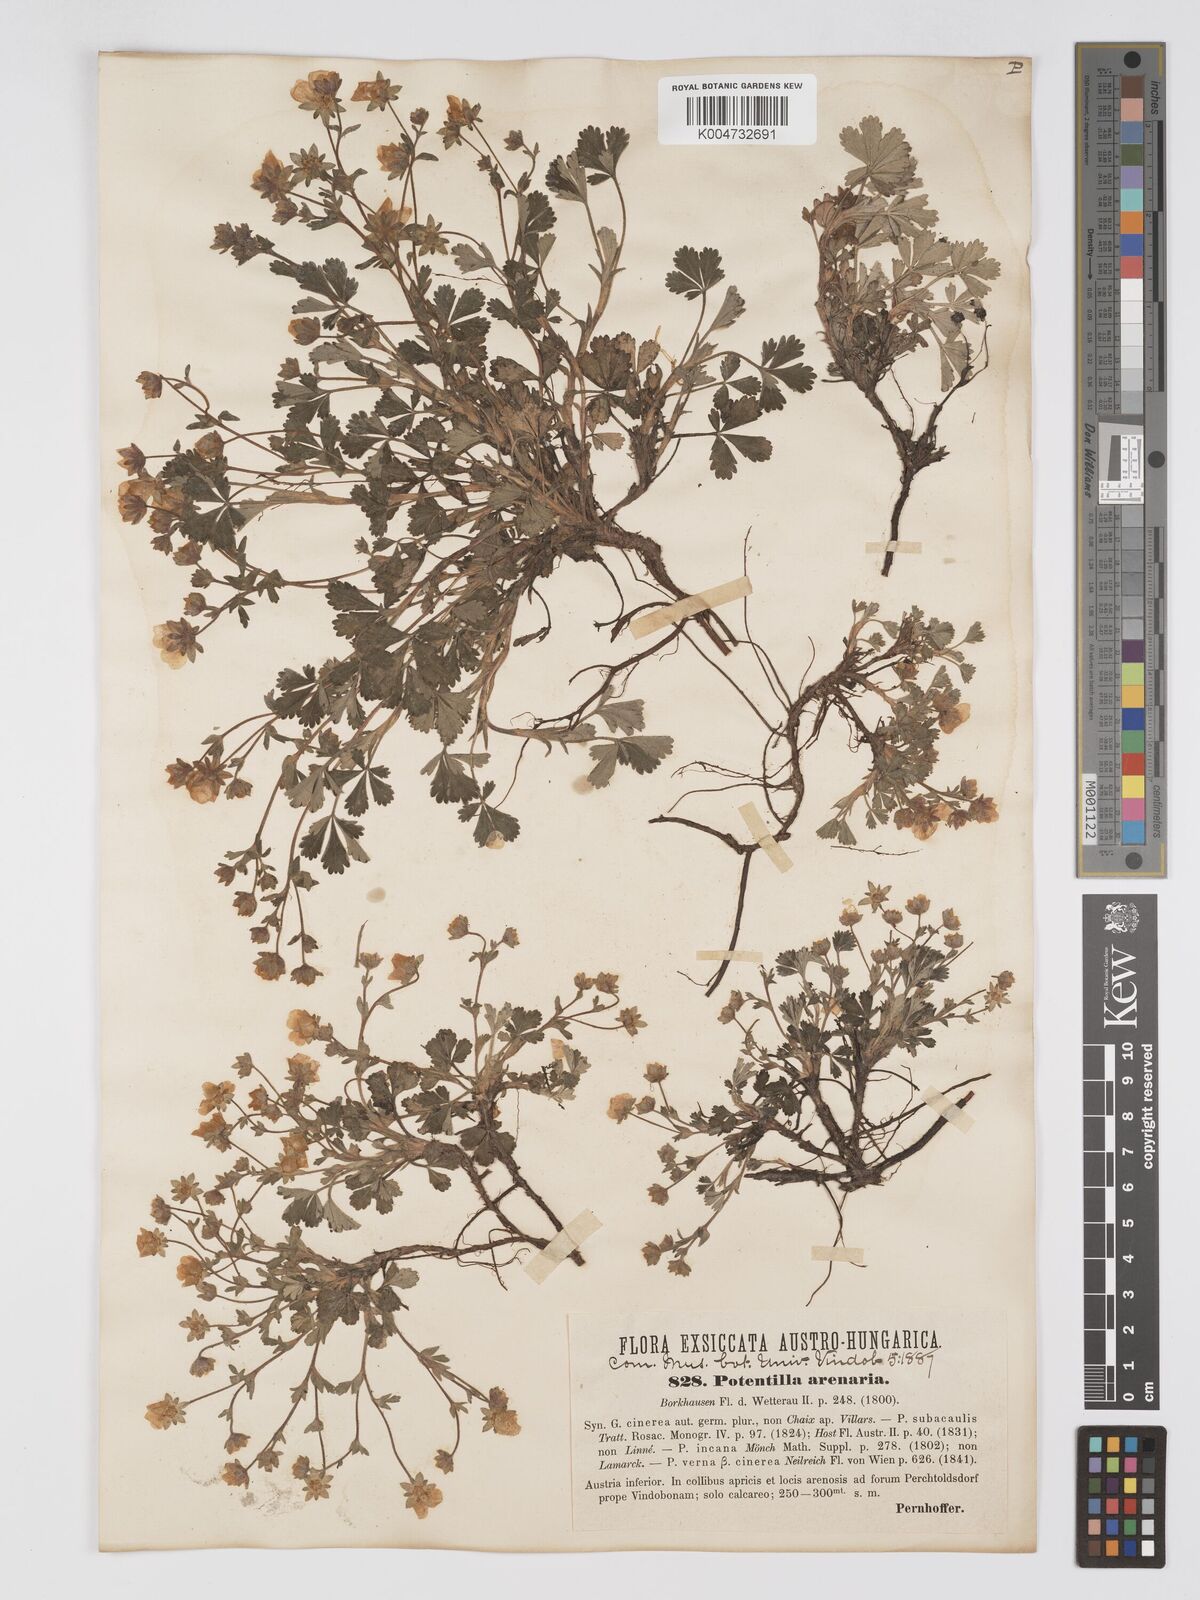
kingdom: Plantae
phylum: Tracheophyta
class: Magnoliopsida
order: Rosales
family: Rosaceae
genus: Potentilla
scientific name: Potentilla cinerea
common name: Ashy cinquefoil
